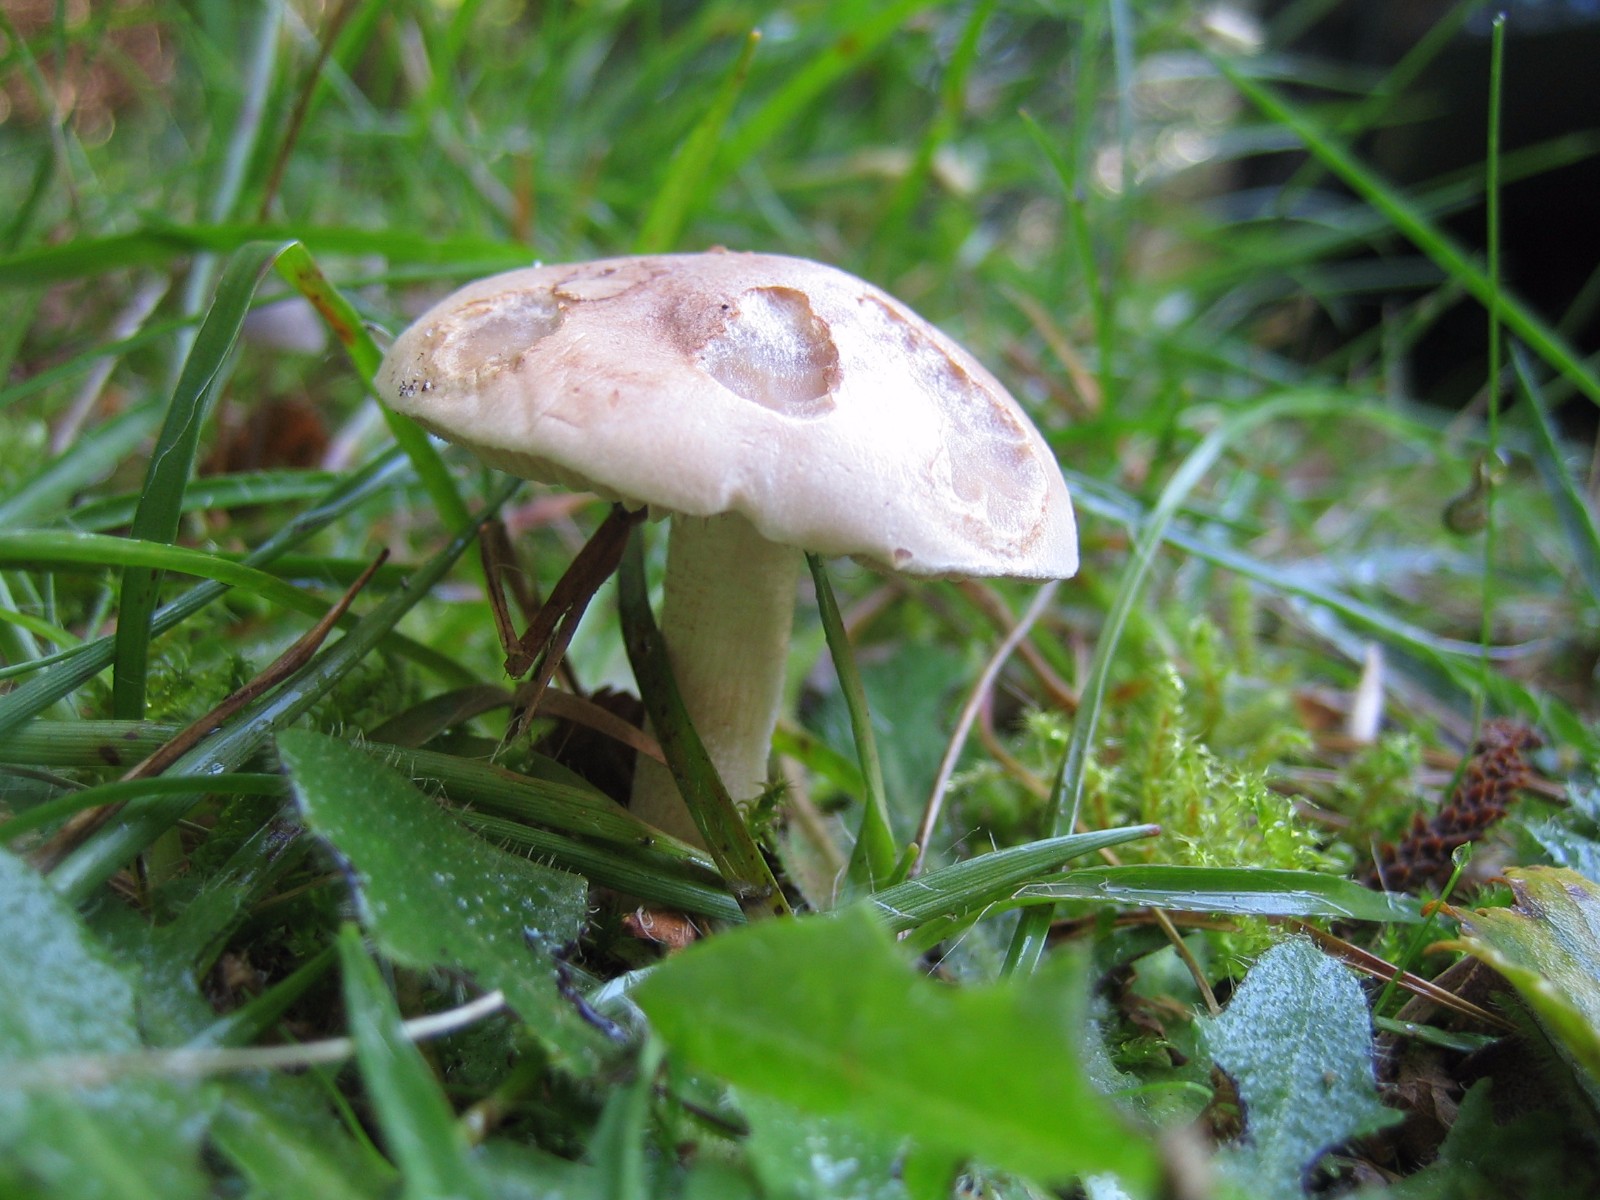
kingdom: Fungi
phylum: Basidiomycota
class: Agaricomycetes
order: Agaricales
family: Hymenogastraceae
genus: Hebeloma
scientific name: Hebeloma
